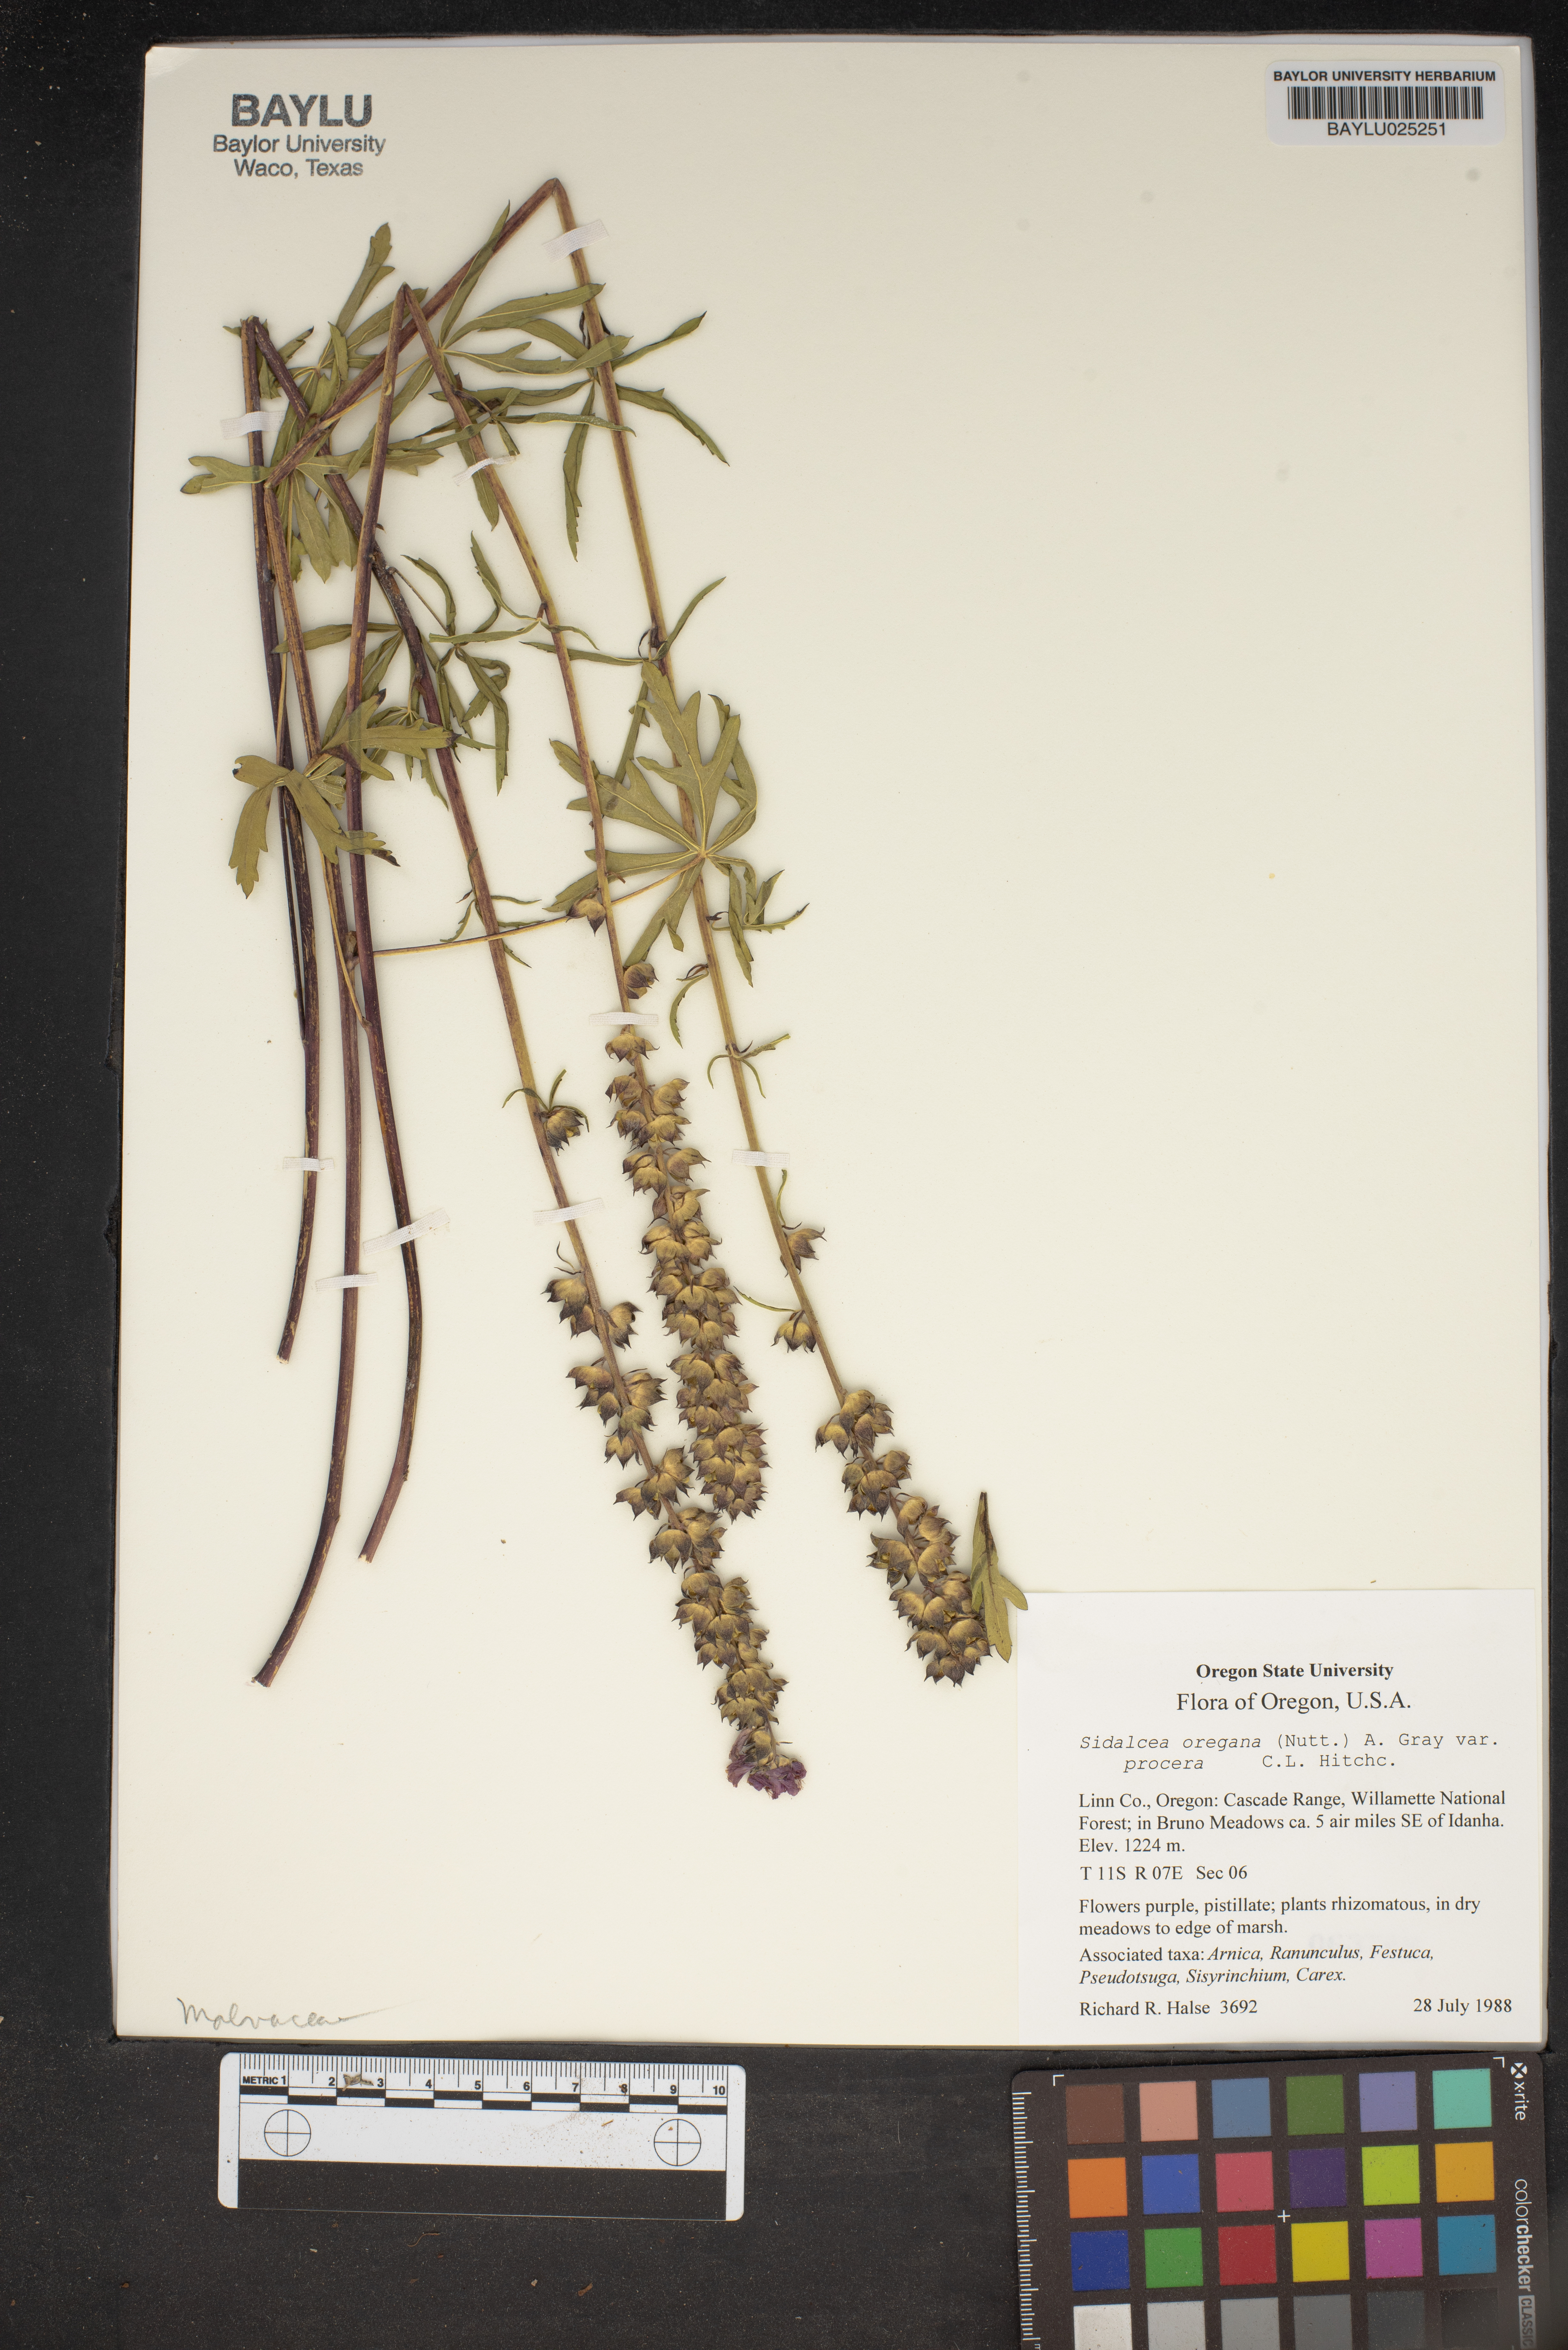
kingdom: Plantae
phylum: Tracheophyta
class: Magnoliopsida
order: Malvales
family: Malvaceae
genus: Sidalcea
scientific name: Sidalcea oregana
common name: Oregon checker-mallow
